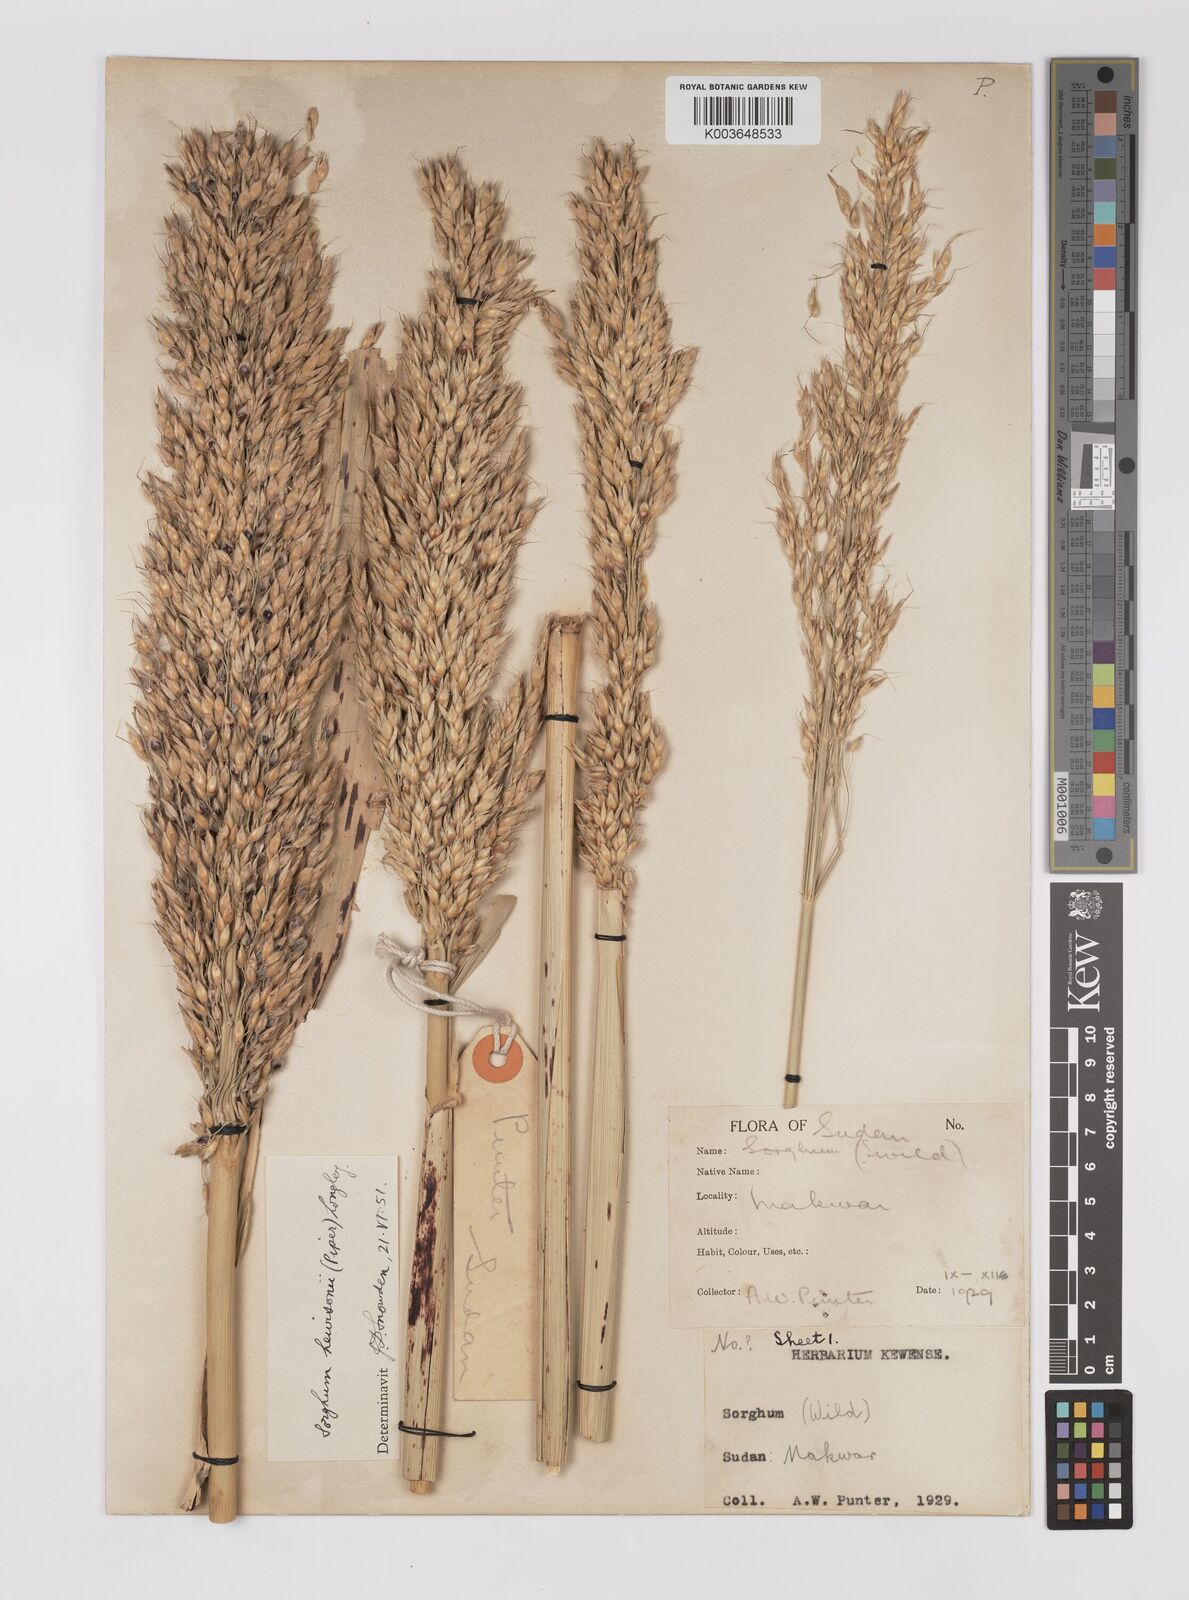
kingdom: Plantae
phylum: Tracheophyta
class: Liliopsida
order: Poales
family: Poaceae
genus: Sorghum
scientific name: Sorghum drummondii
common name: Sudangrass
